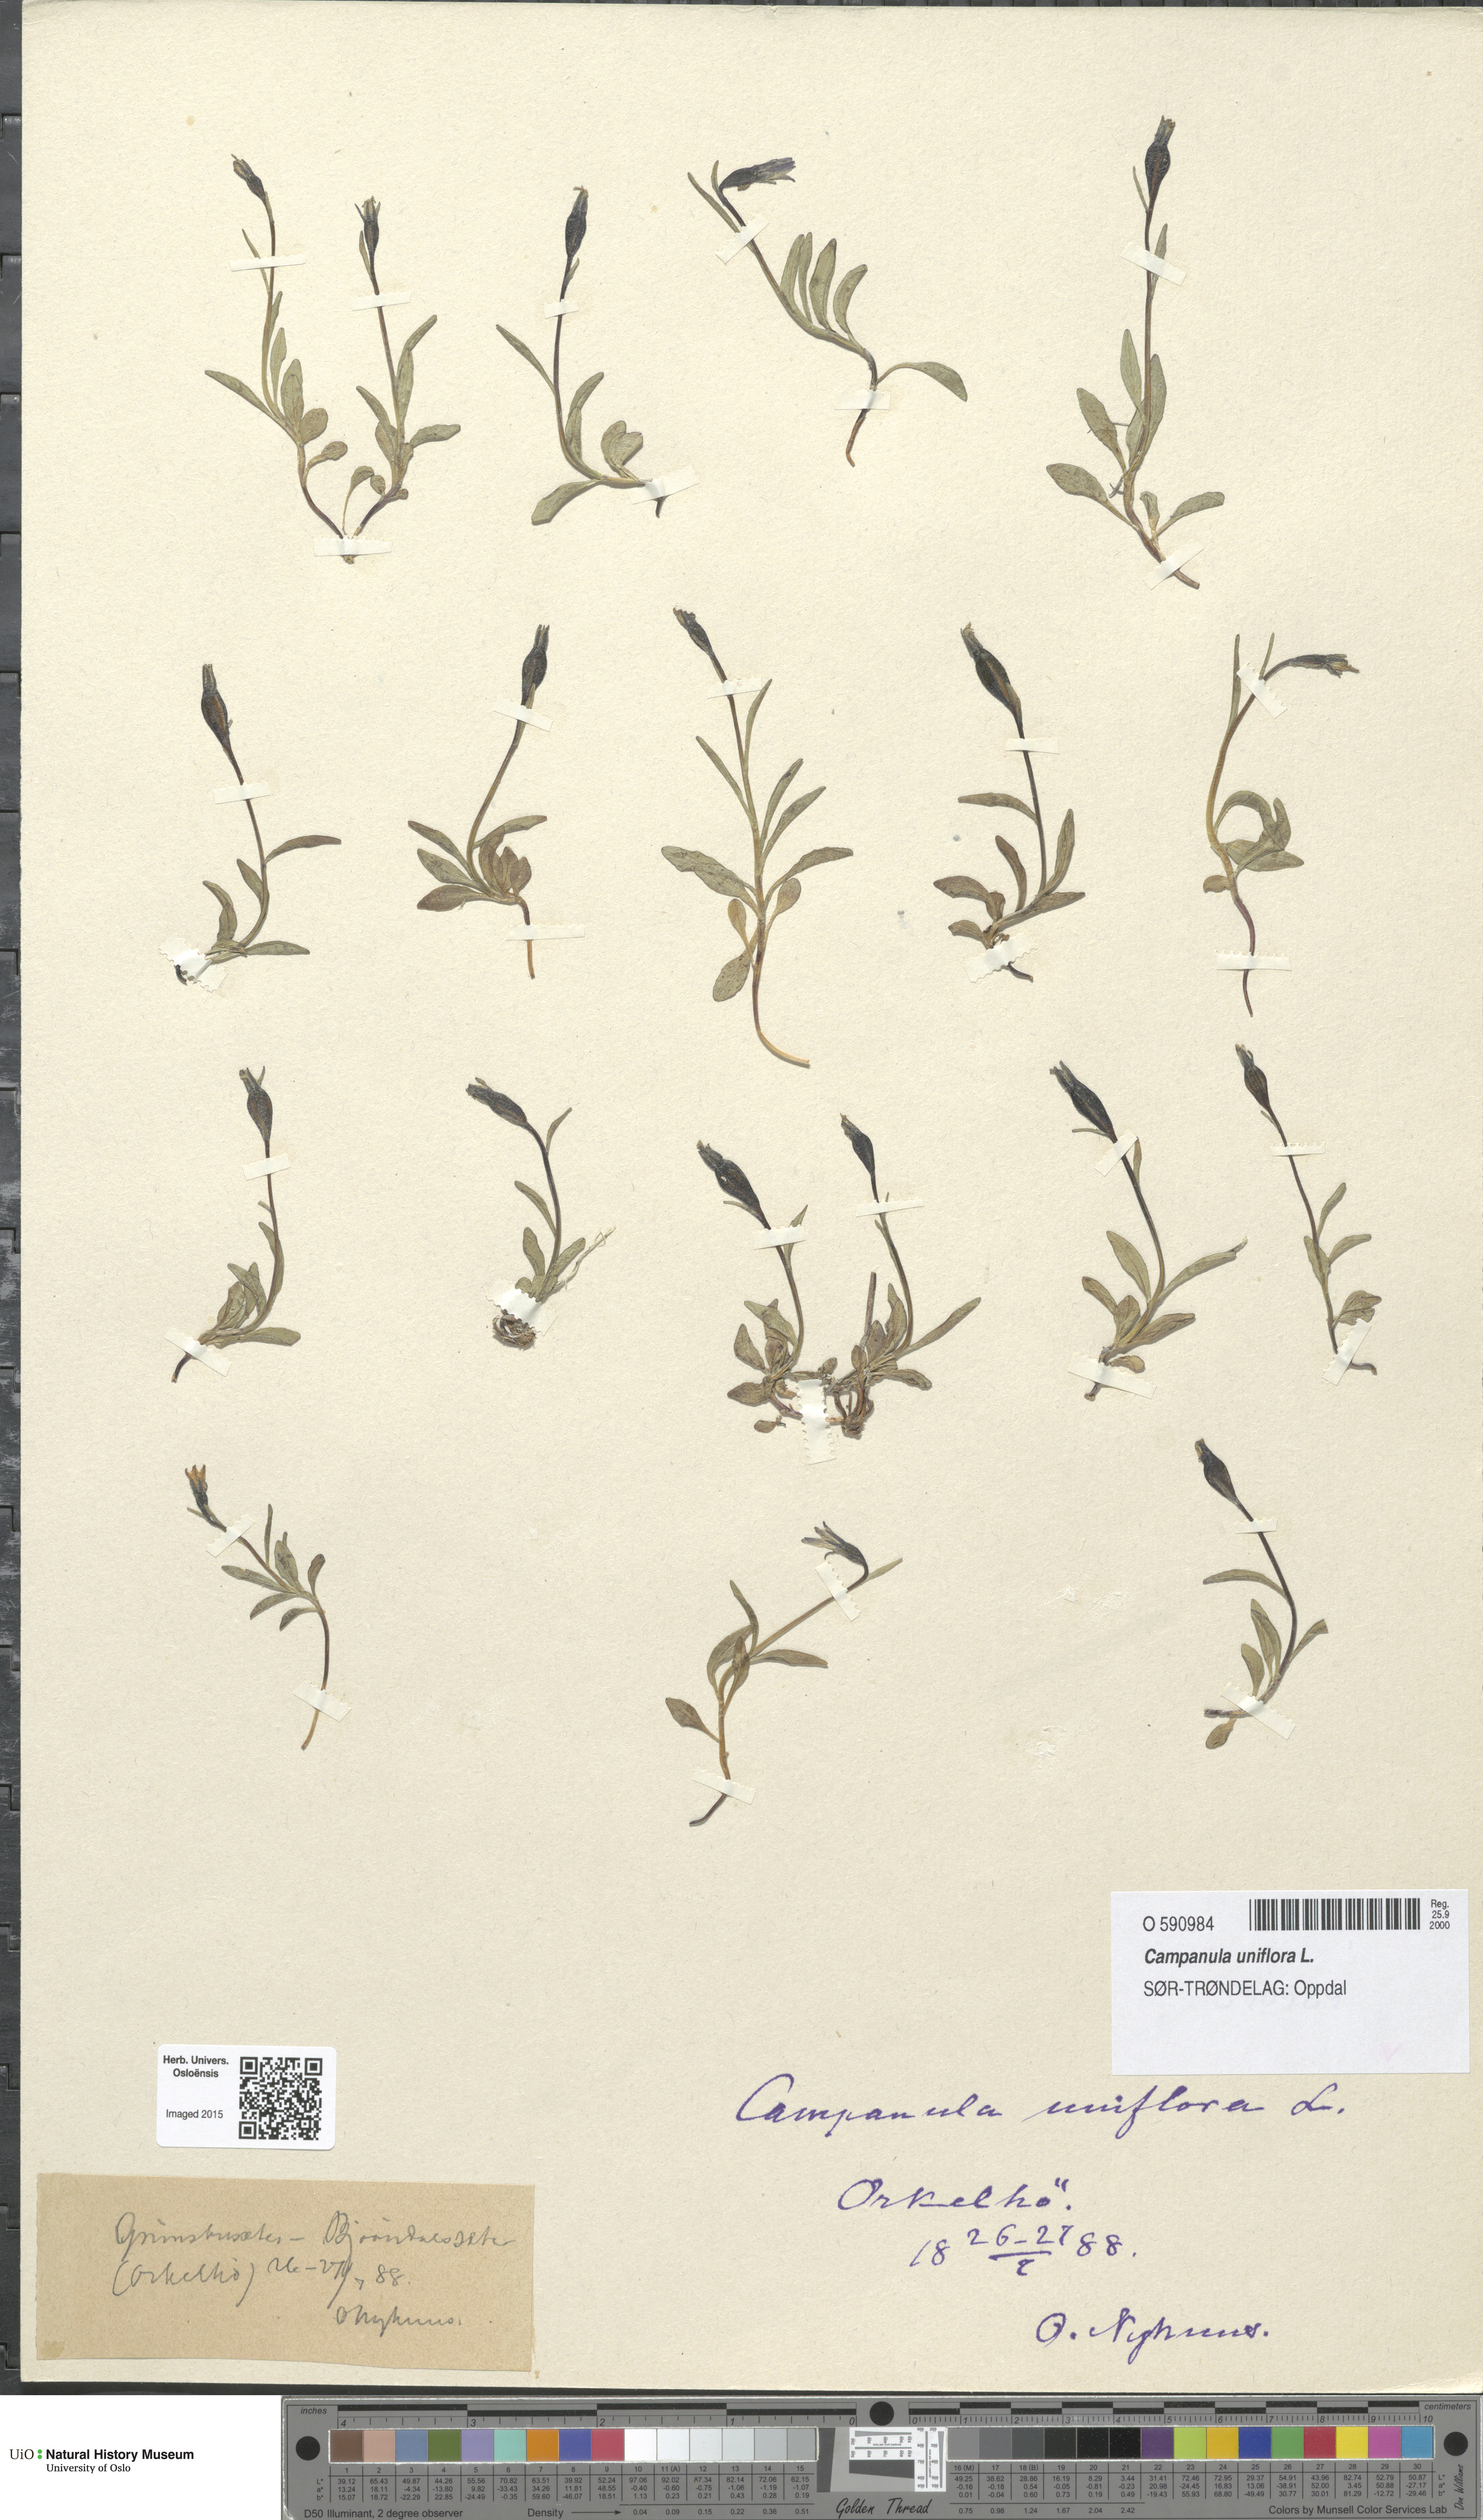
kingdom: Plantae
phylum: Tracheophyta
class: Magnoliopsida
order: Asterales
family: Campanulaceae
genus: Melanocalyx
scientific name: Melanocalyx uniflora
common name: Alpine harebell
